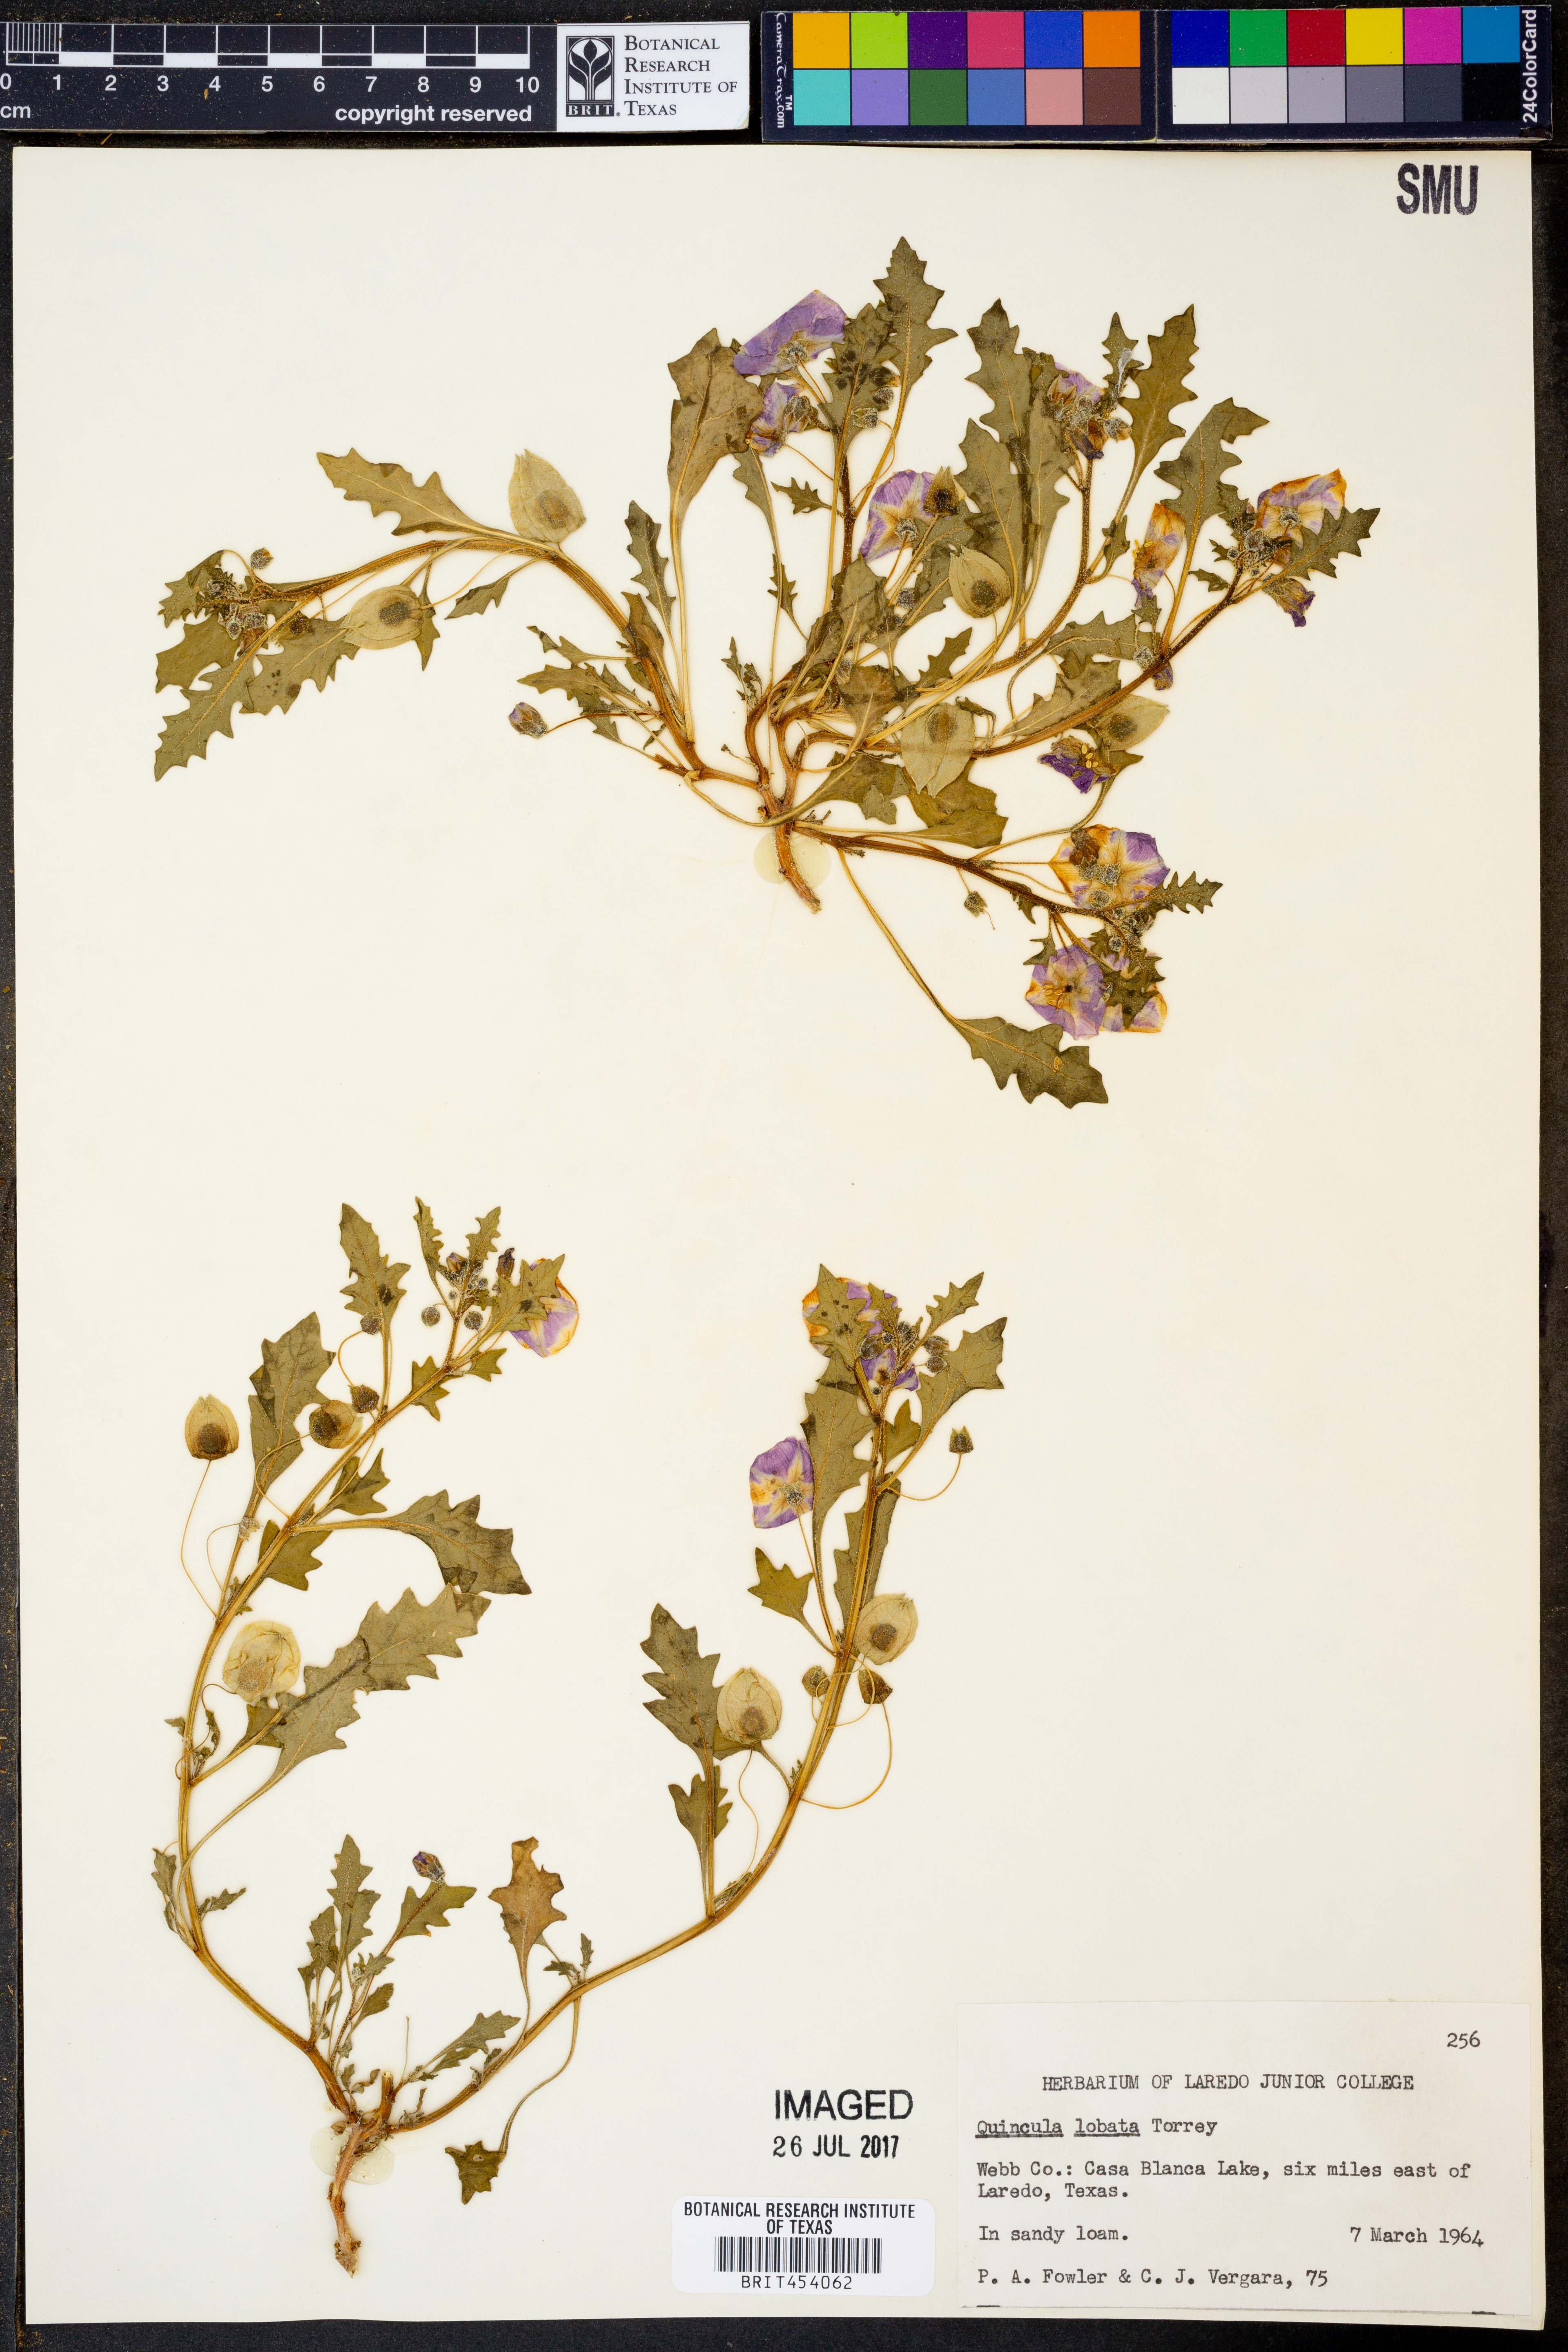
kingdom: Plantae
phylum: Tracheophyta
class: Magnoliopsida
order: Solanales
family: Solanaceae
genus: Quincula
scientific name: Quincula lobata
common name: Purple-ground-cherry
